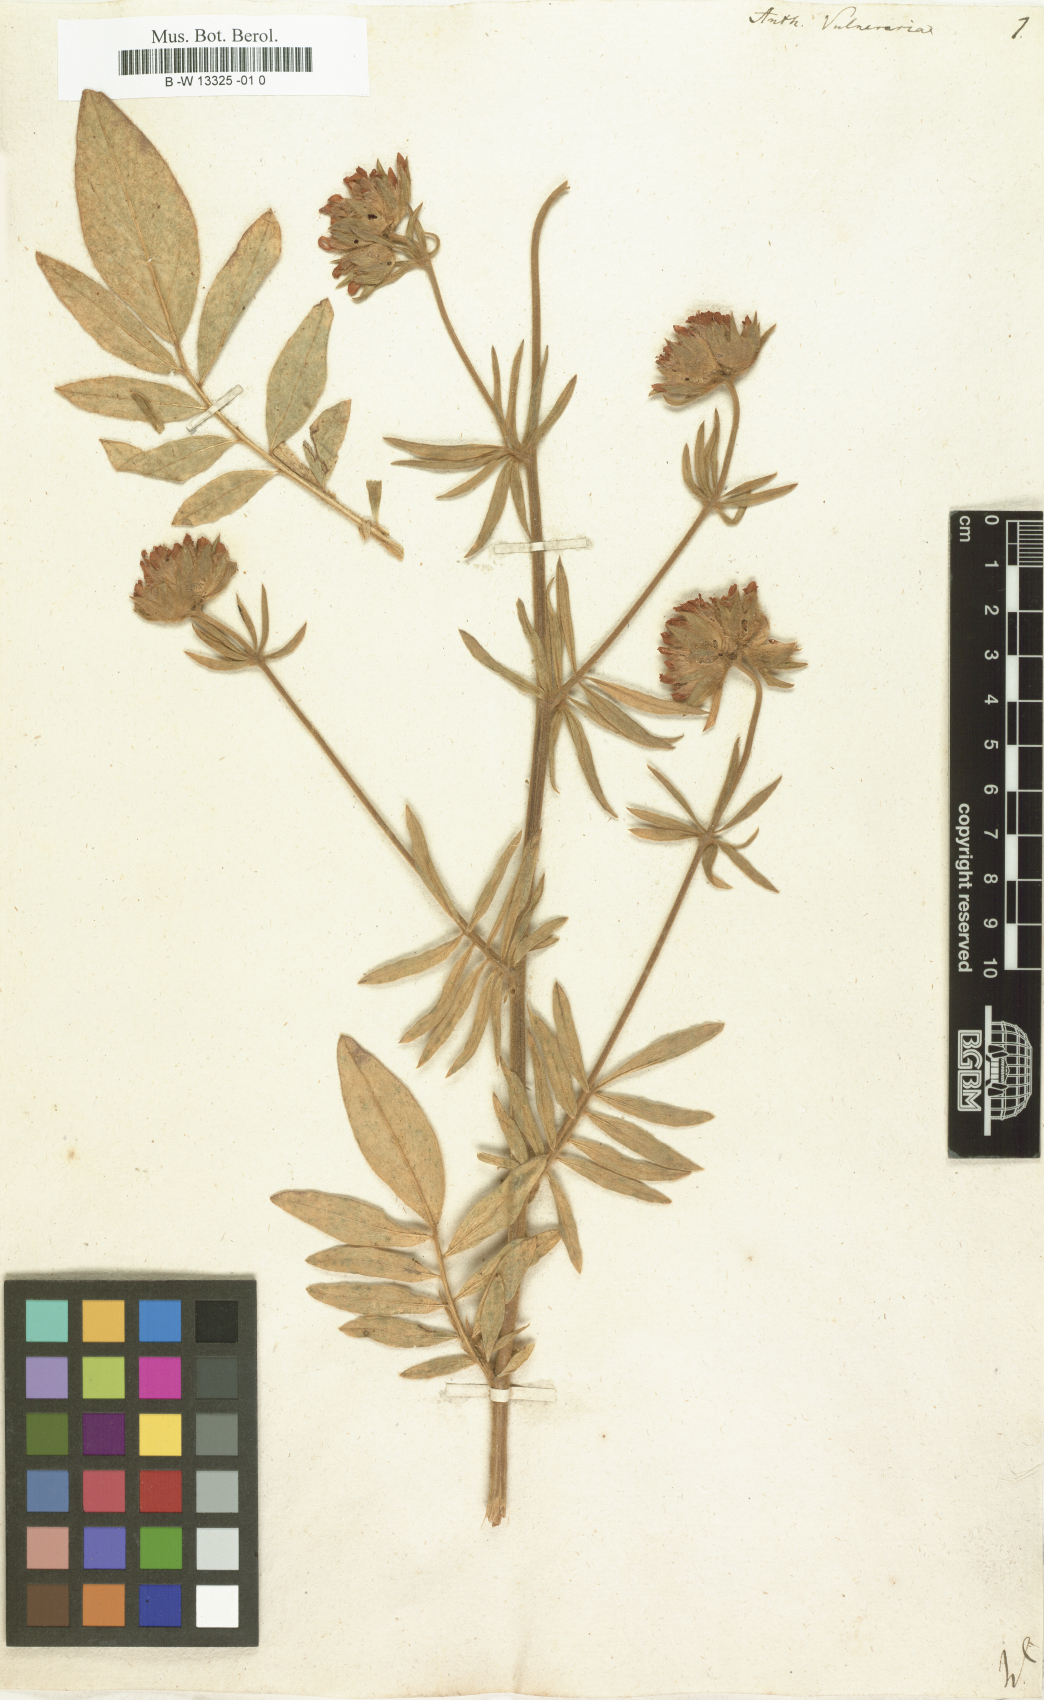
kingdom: Plantae
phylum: Tracheophyta
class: Magnoliopsida
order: Fabales
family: Fabaceae
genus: Anthyllis
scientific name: Anthyllis vulneraria
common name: Kidney vetch
